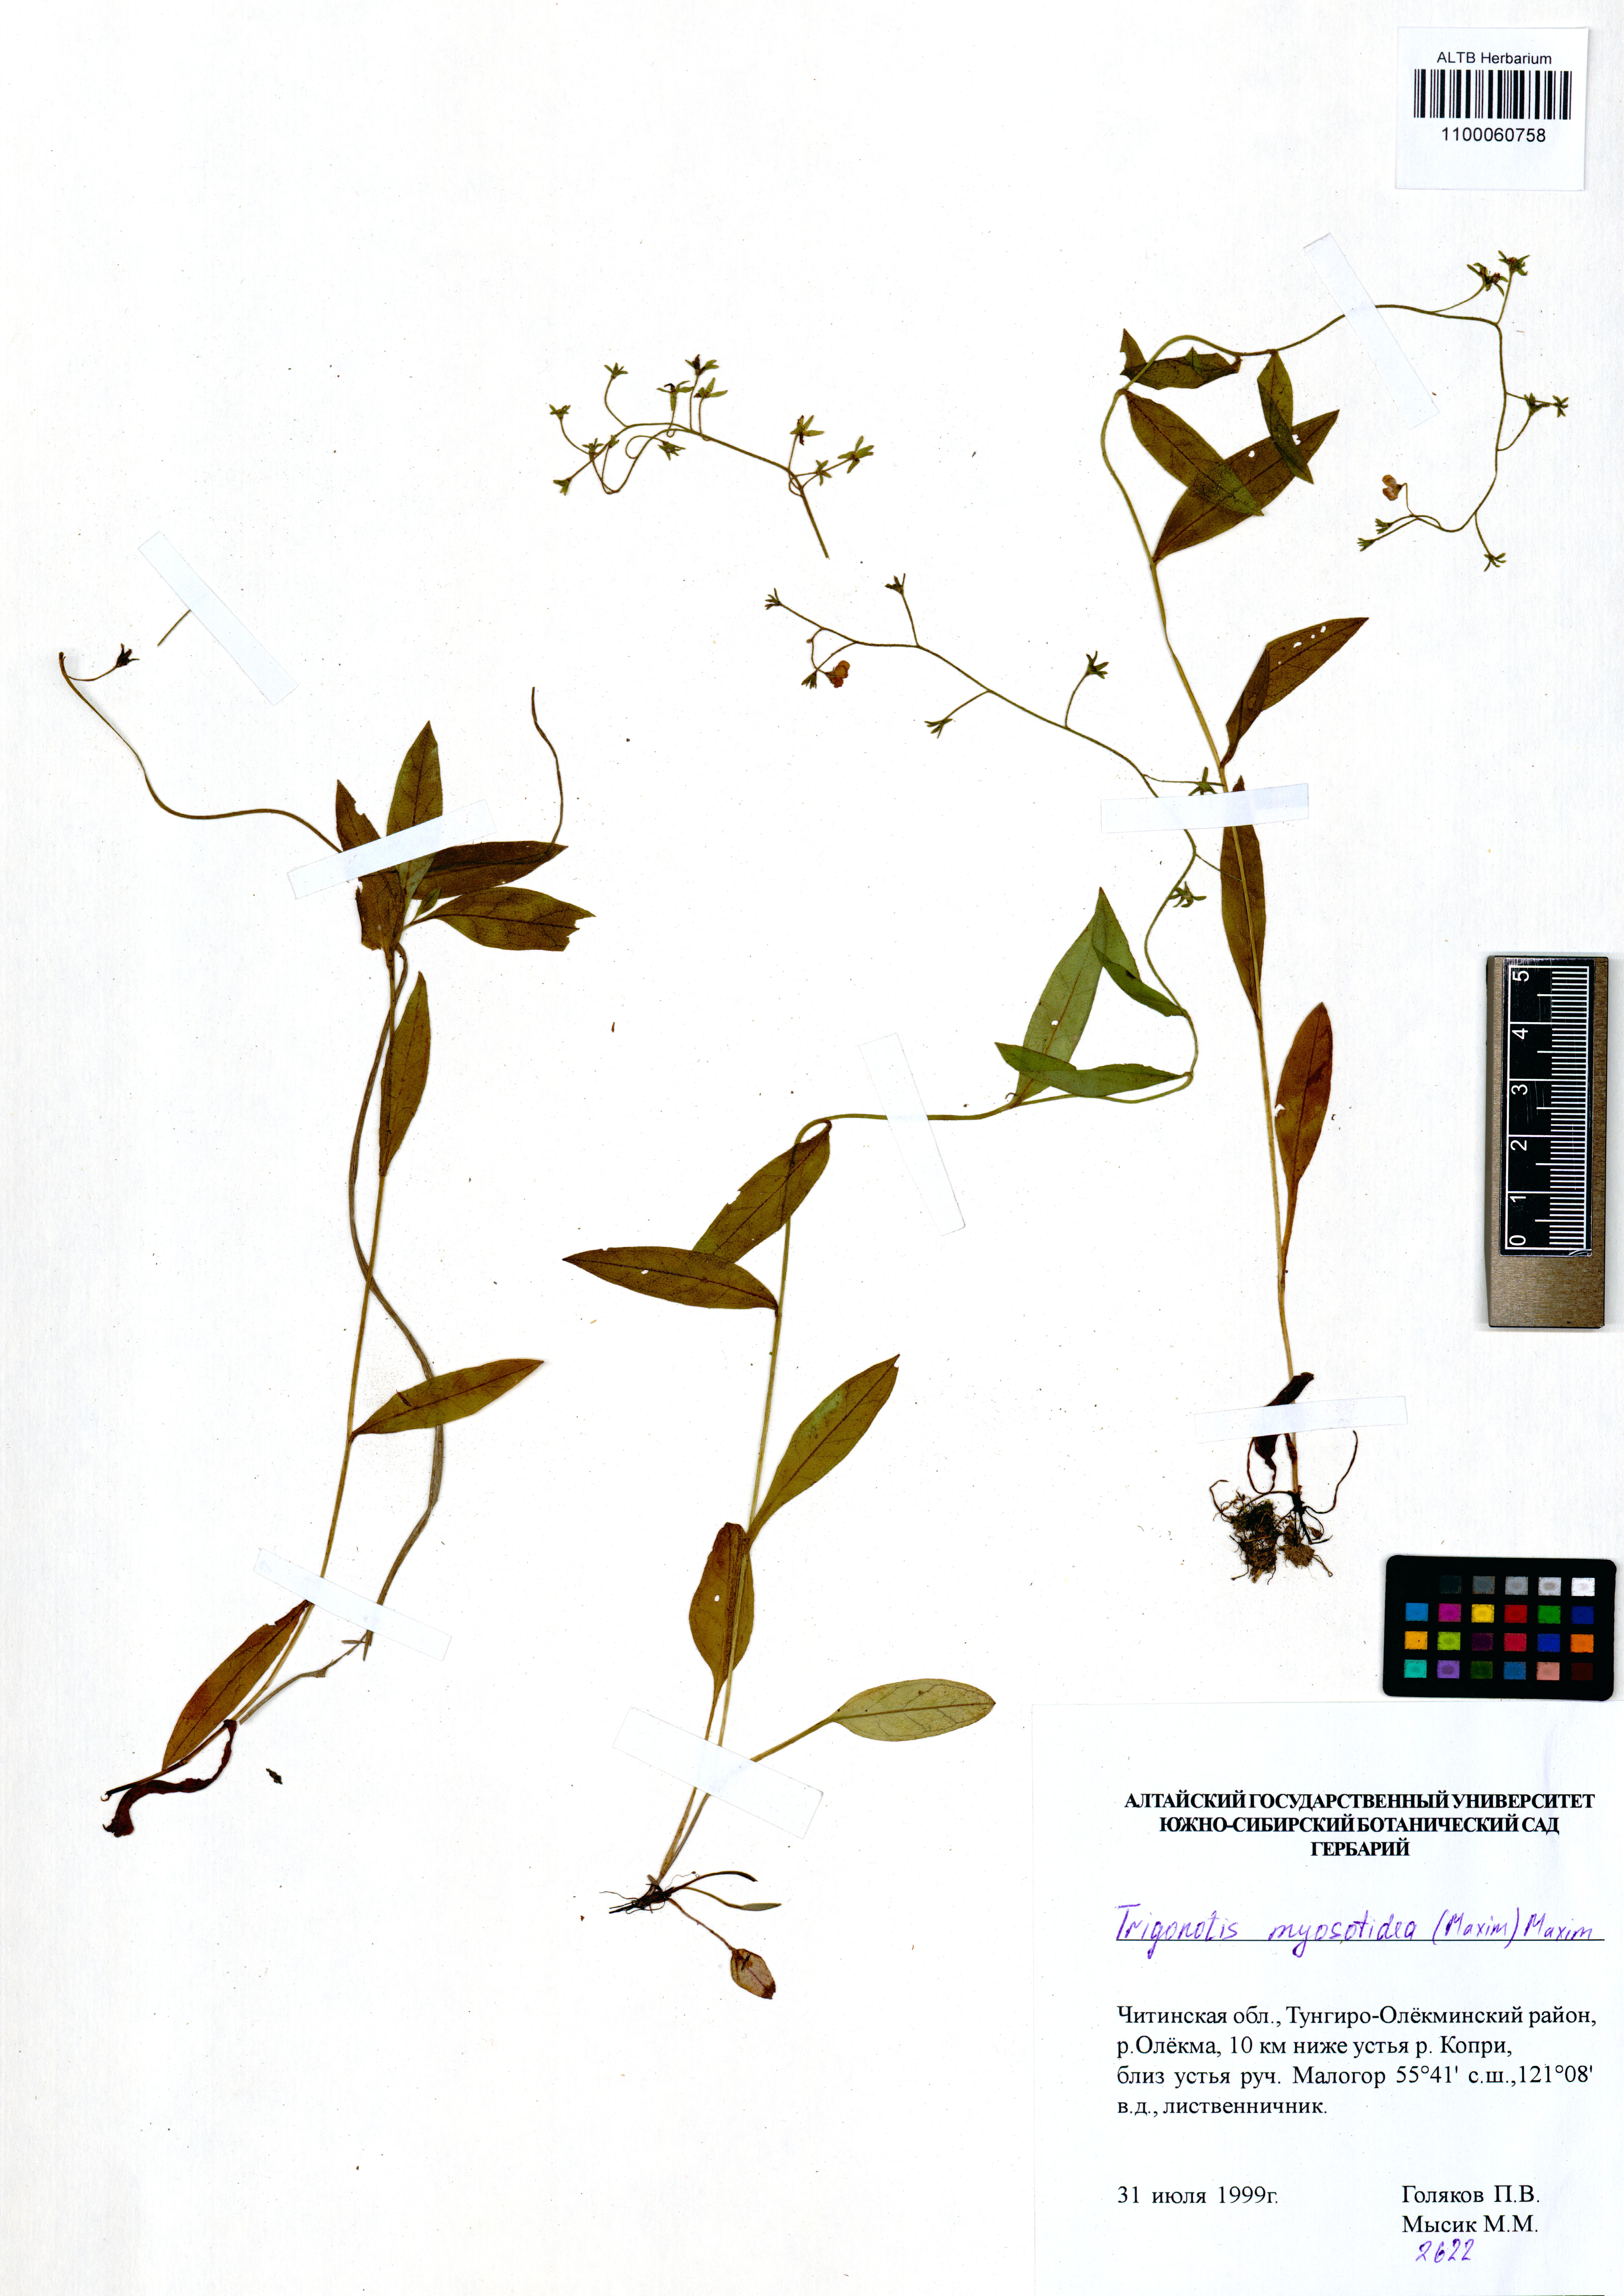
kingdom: Plantae
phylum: Tracheophyta
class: Magnoliopsida
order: Boraginales
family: Boraginaceae
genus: Trigonotis
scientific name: Trigonotis myosotidea
